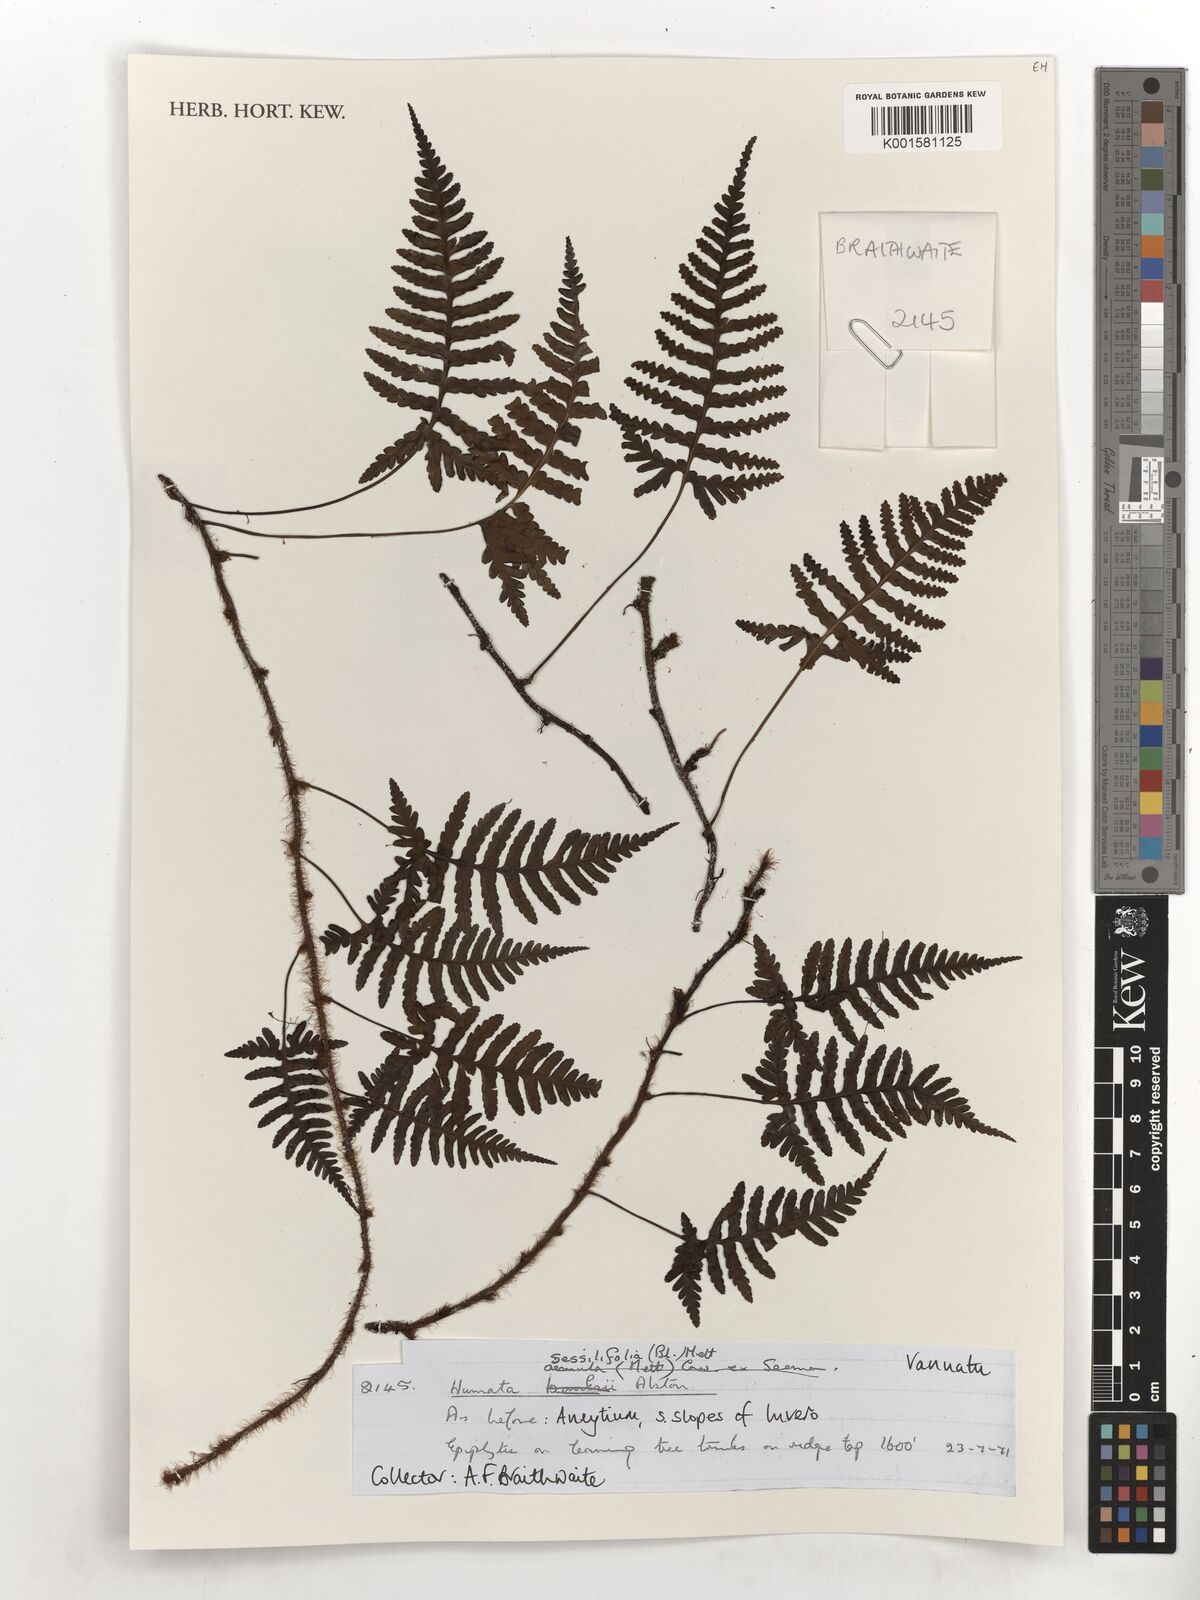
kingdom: Plantae
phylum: Tracheophyta
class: Polypodiopsida
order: Polypodiales
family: Davalliaceae
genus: Davallia
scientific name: Davallia sessilifolia
